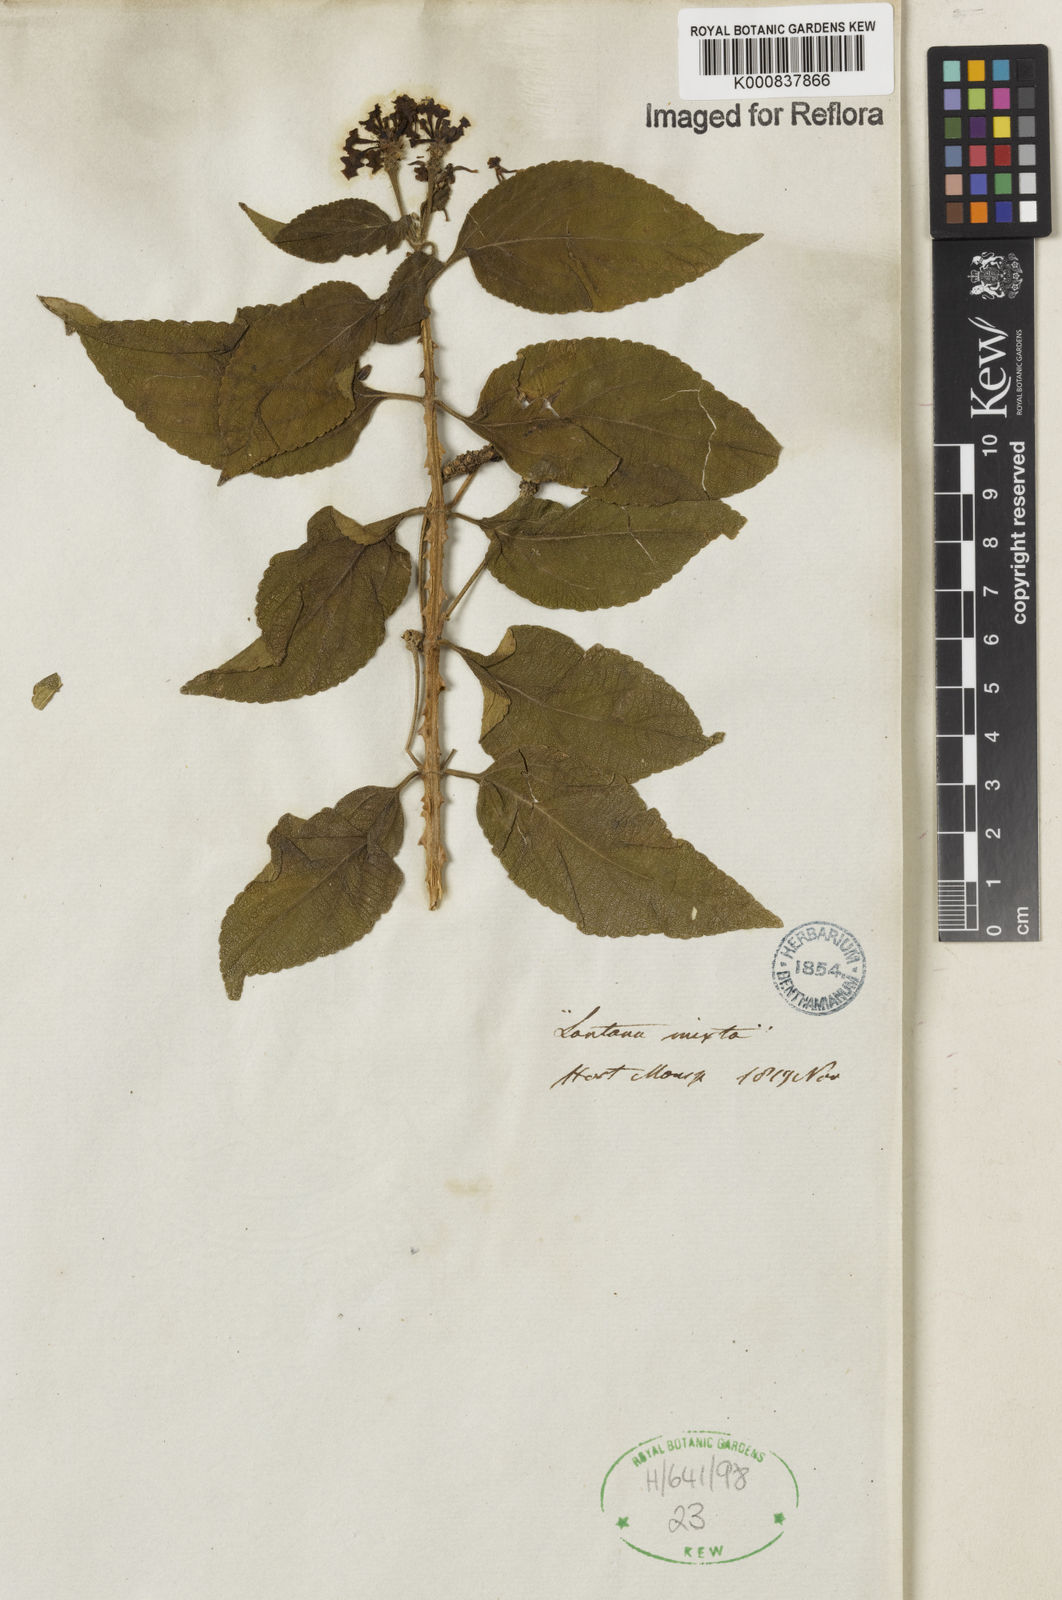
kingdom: Plantae
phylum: Tracheophyta
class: Magnoliopsida
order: Lamiales
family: Verbenaceae
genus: Lantana
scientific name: Lantana horrida
